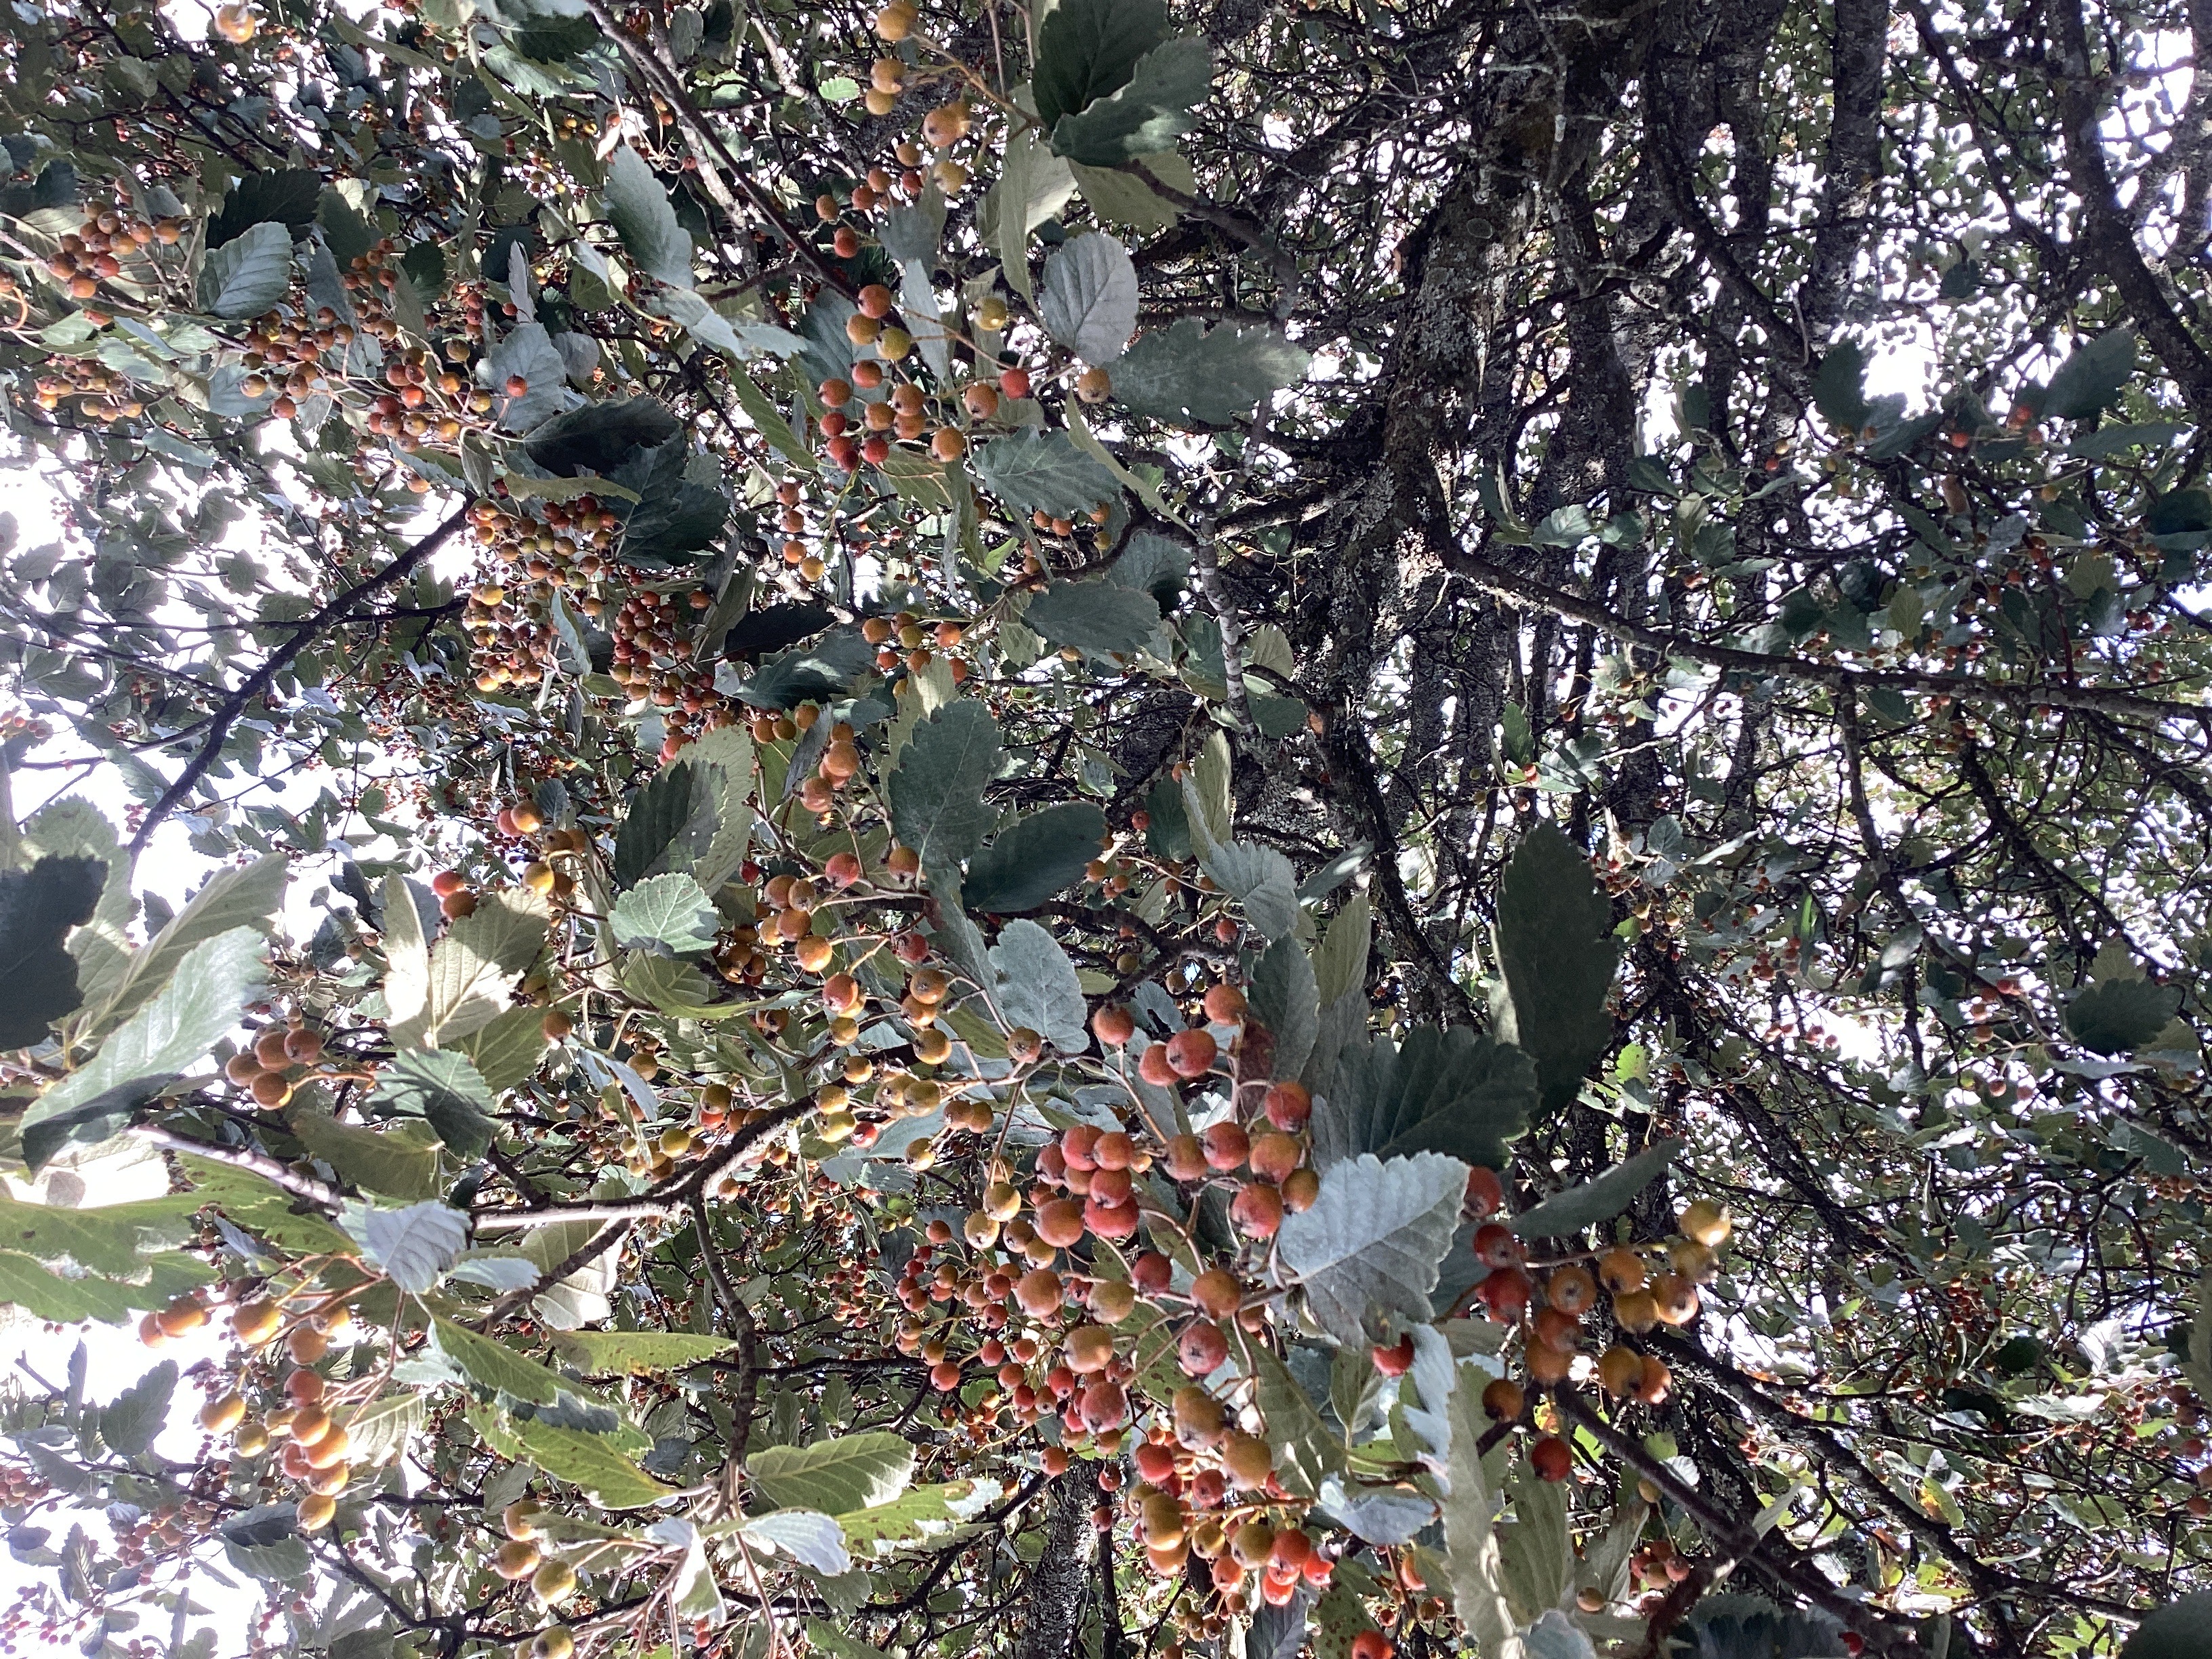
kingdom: Plantae
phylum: Tracheophyta
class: Magnoliopsida
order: Rosales
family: Rosaceae
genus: Scandosorbus
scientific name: Scandosorbus intermedia
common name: svensk asal
